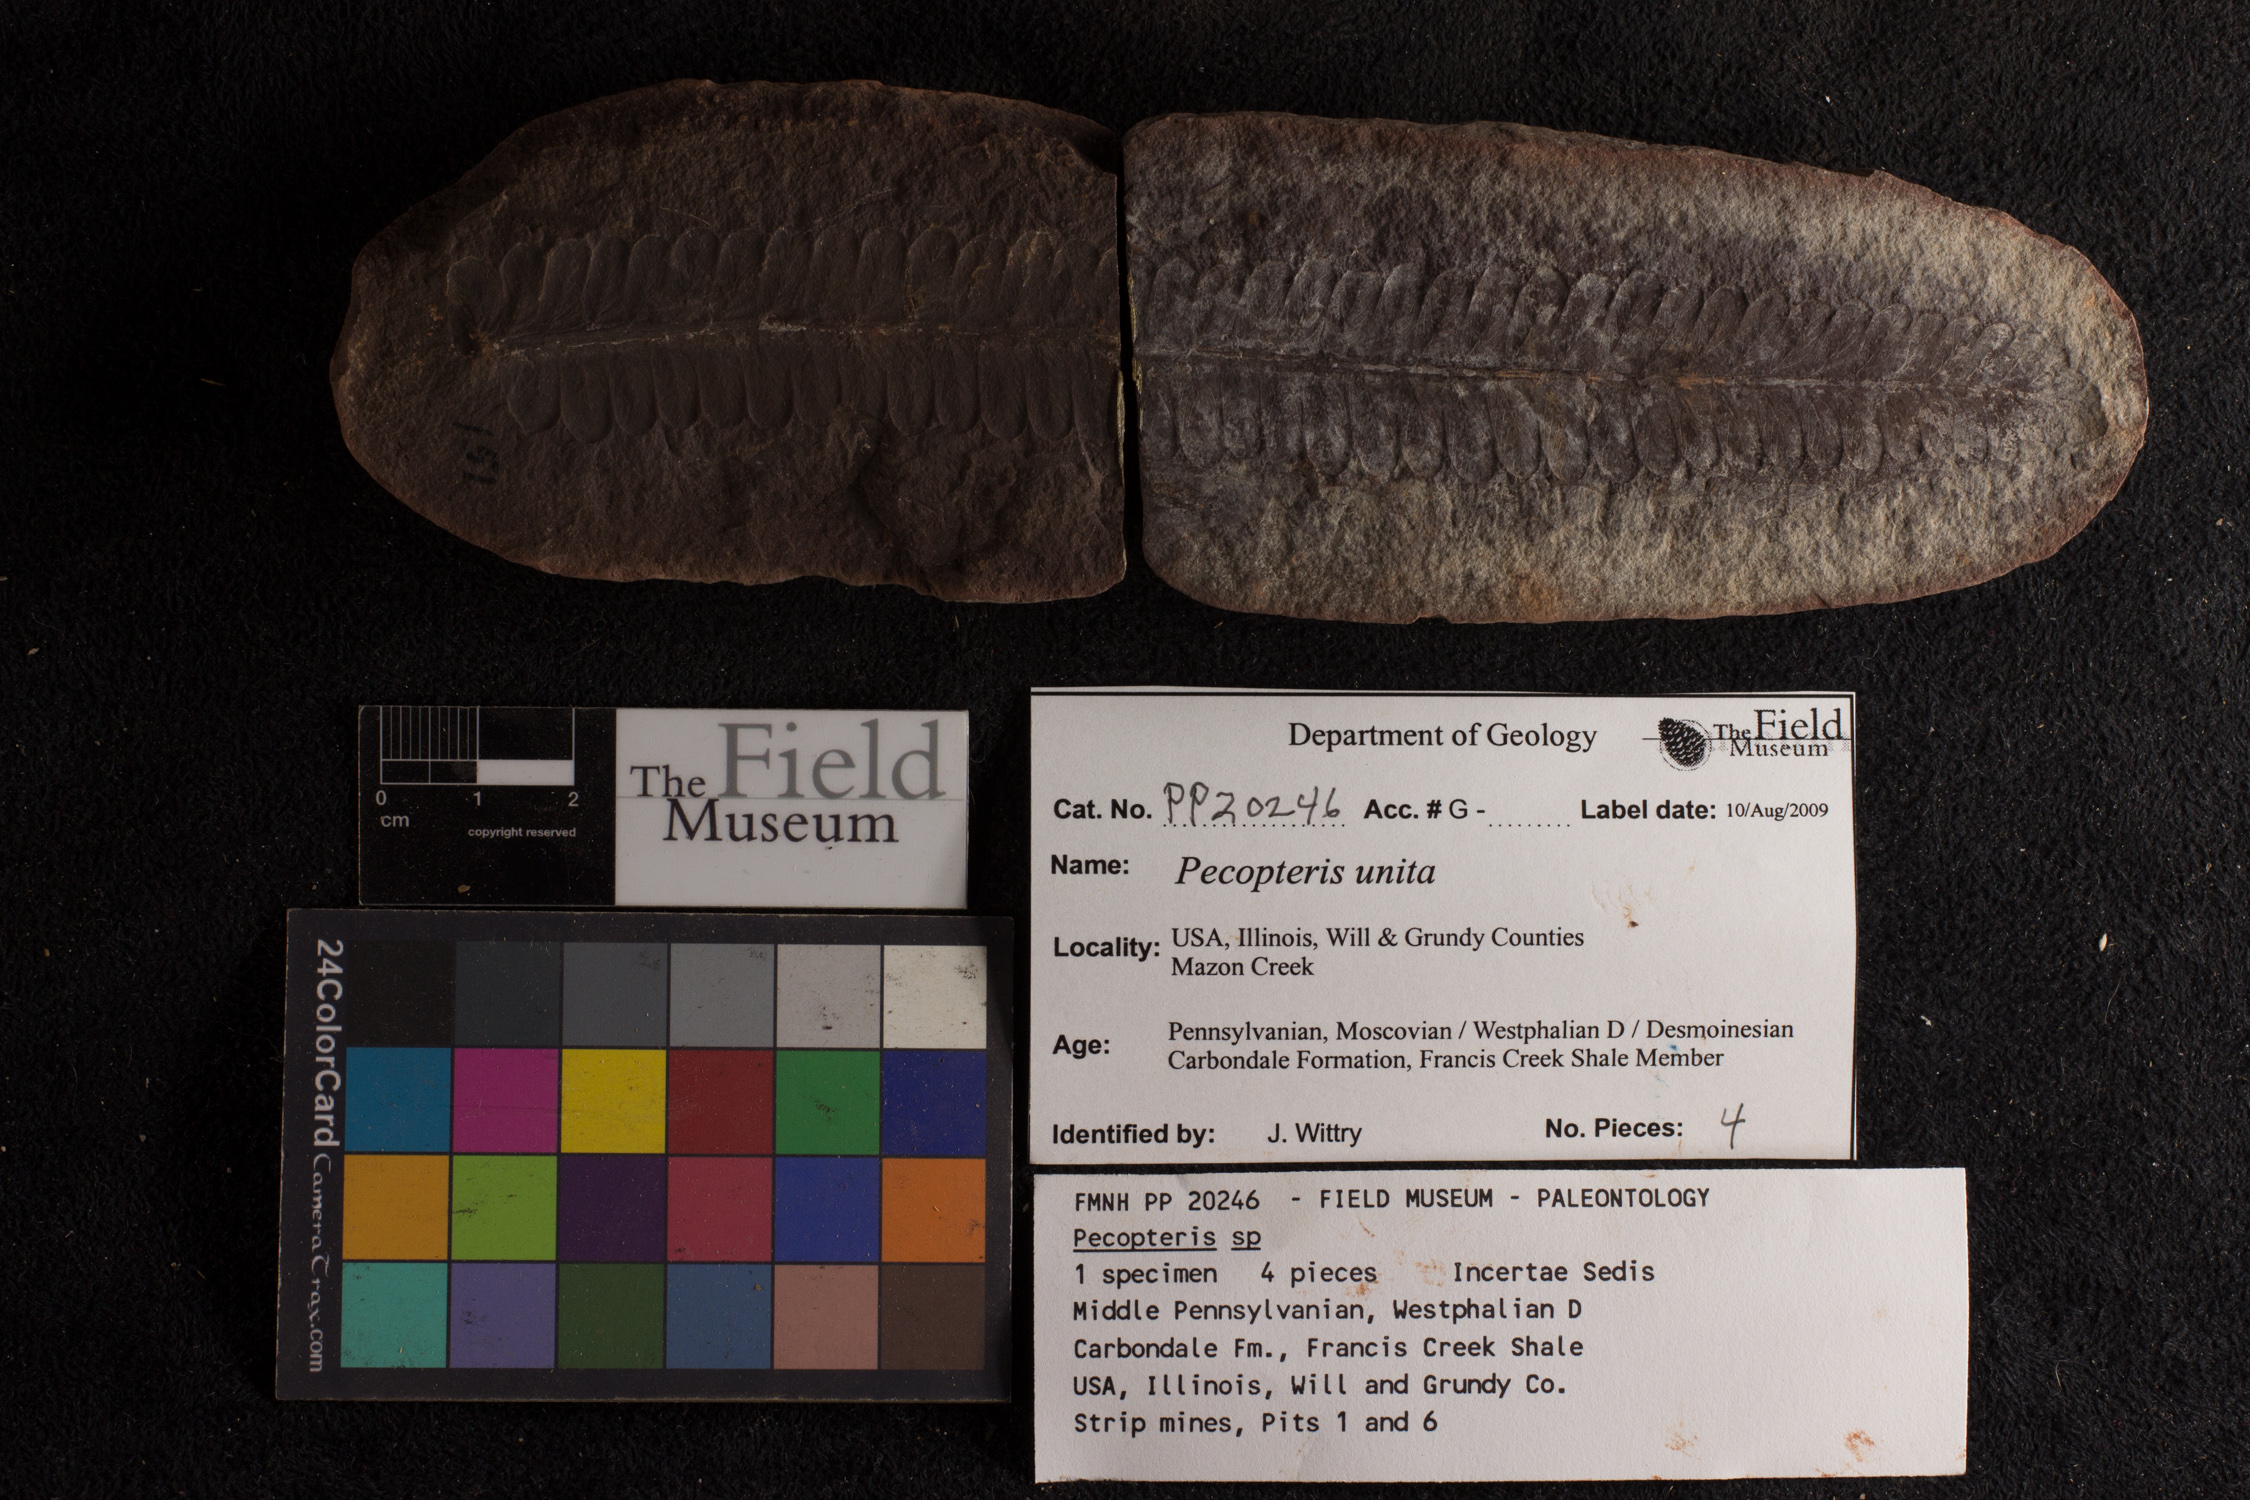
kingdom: Plantae
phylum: Tracheophyta
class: Polypodiopsida
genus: Diplazites
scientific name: Diplazites
